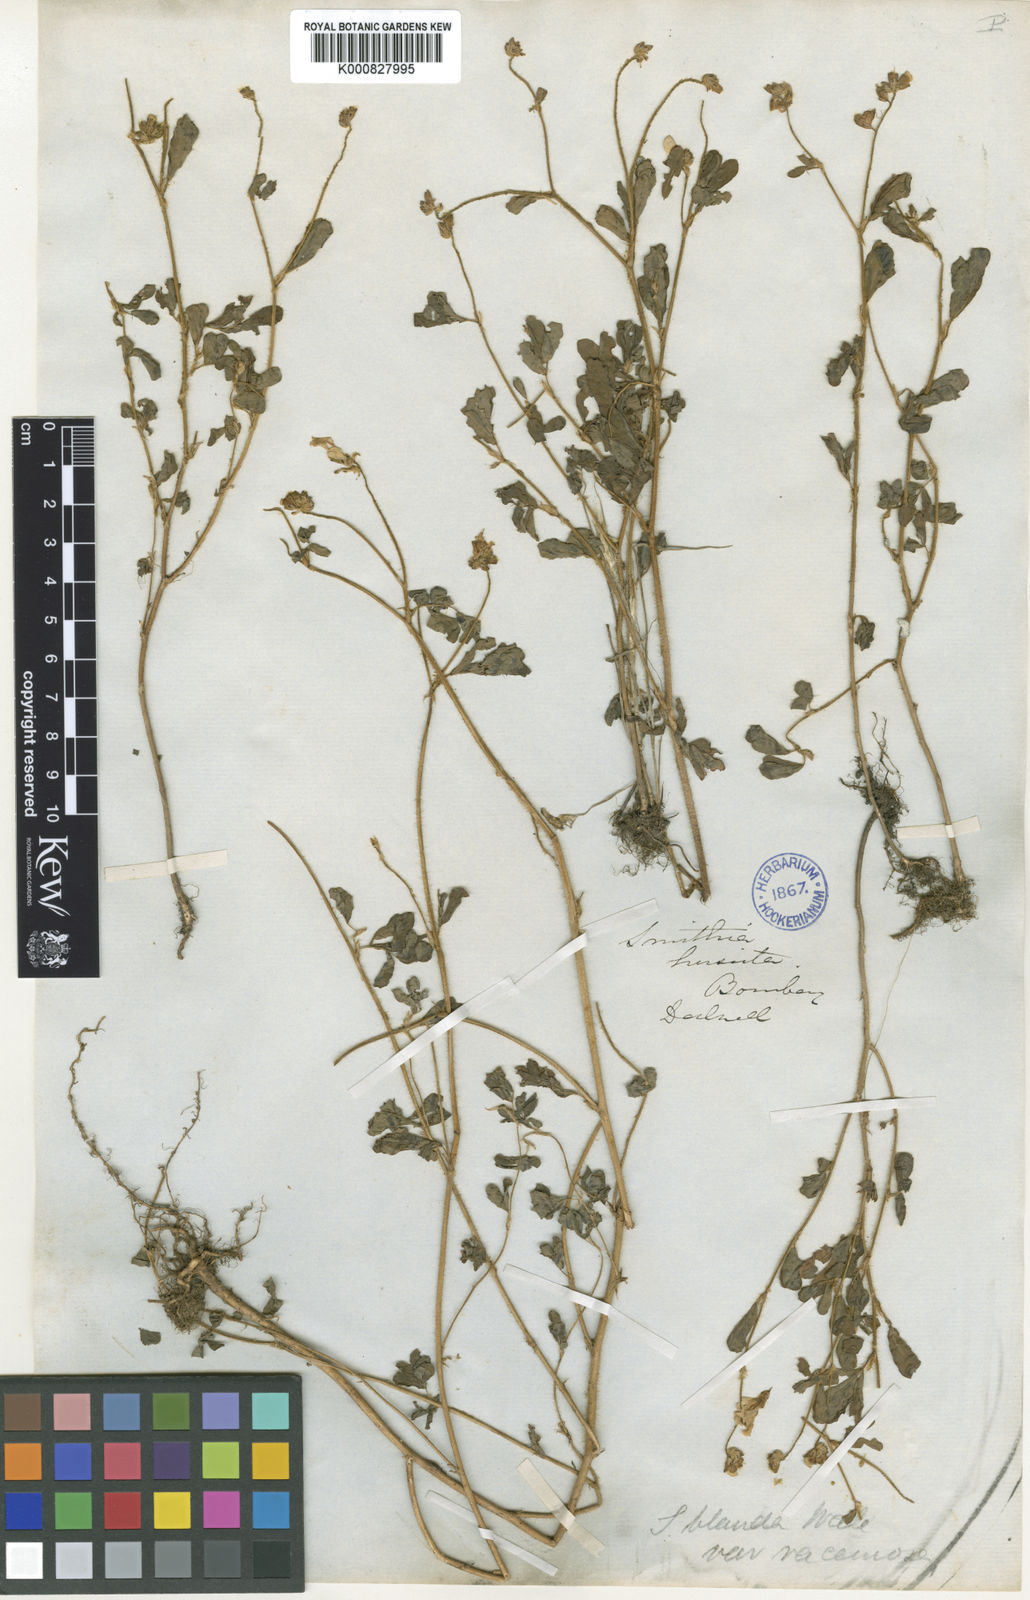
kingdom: Plantae
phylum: Tracheophyta
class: Magnoliopsida
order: Fabales
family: Fabaceae
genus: Smithia
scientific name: Smithia hirsuta
